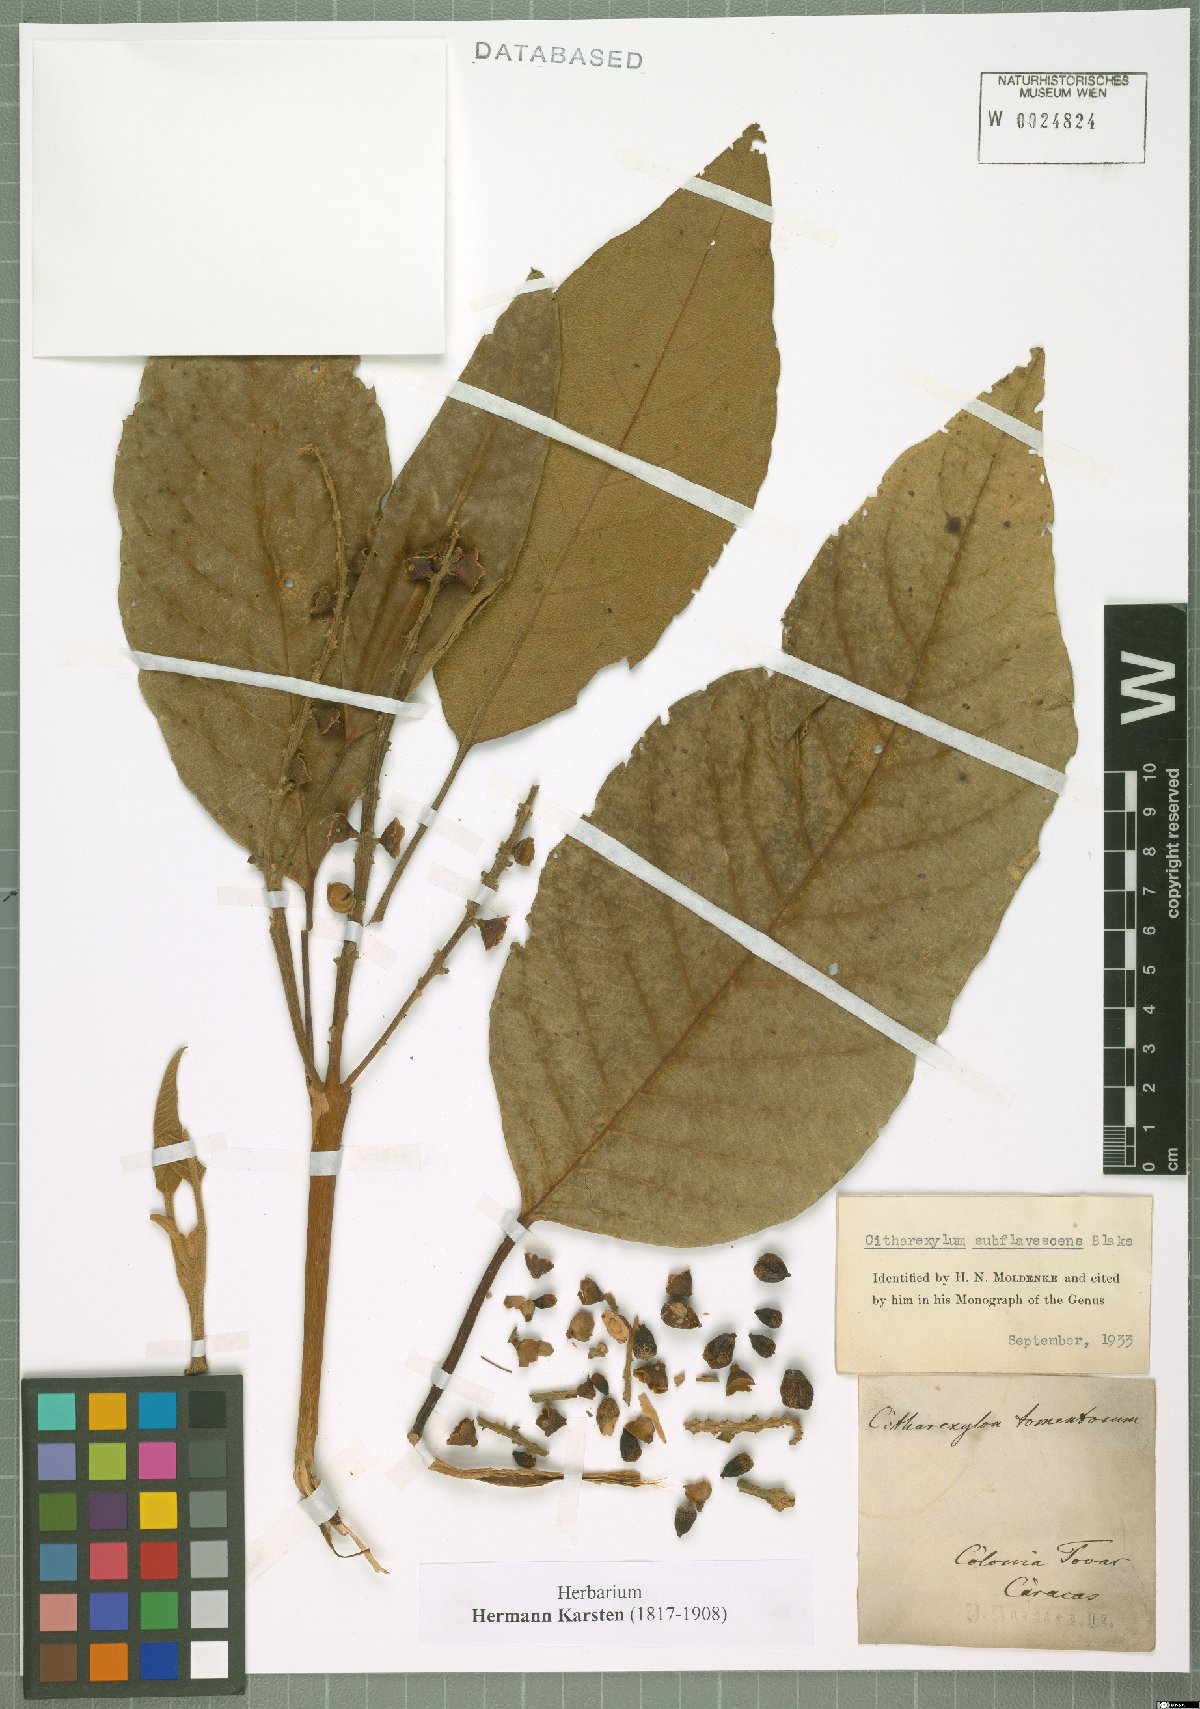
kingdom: Plantae
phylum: Tracheophyta
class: Magnoliopsida
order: Lamiales
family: Verbenaceae
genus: Citharexylum
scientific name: Citharexylum subflavescens
